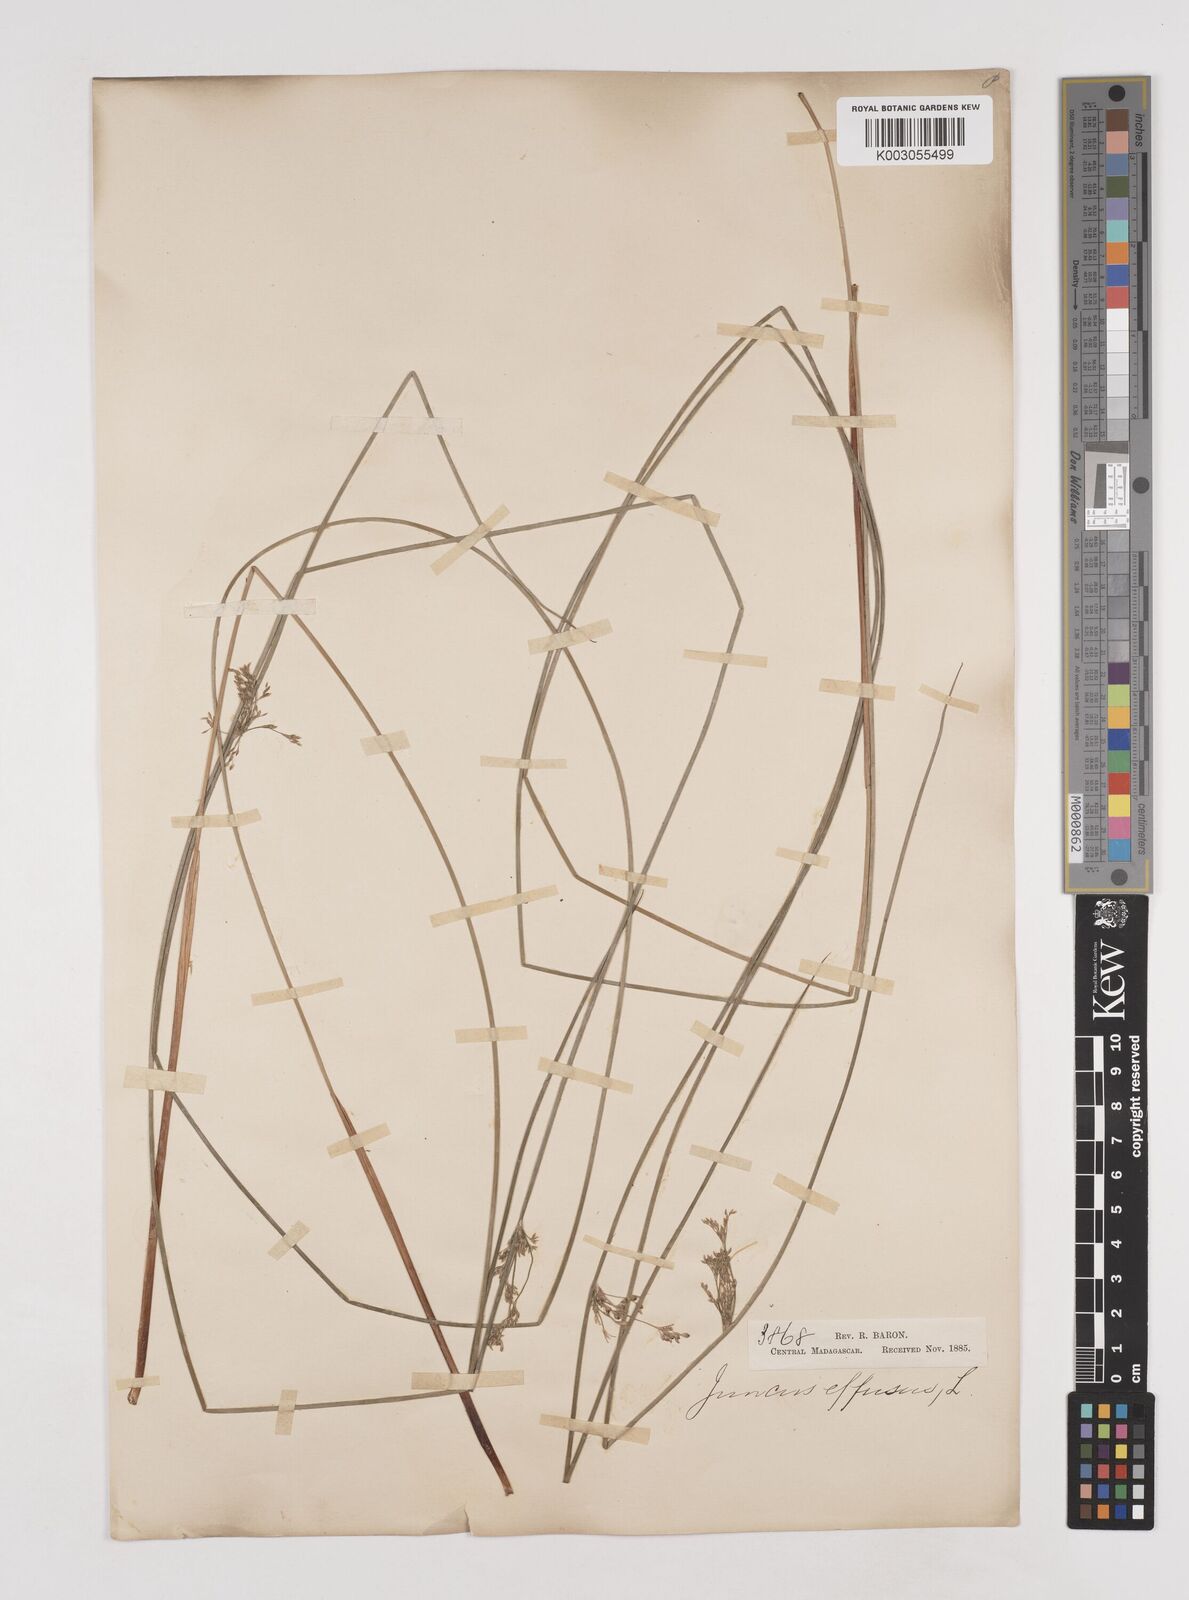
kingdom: Plantae
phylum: Tracheophyta
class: Liliopsida
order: Poales
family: Juncaceae
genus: Juncus
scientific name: Juncus effusus
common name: Soft rush
